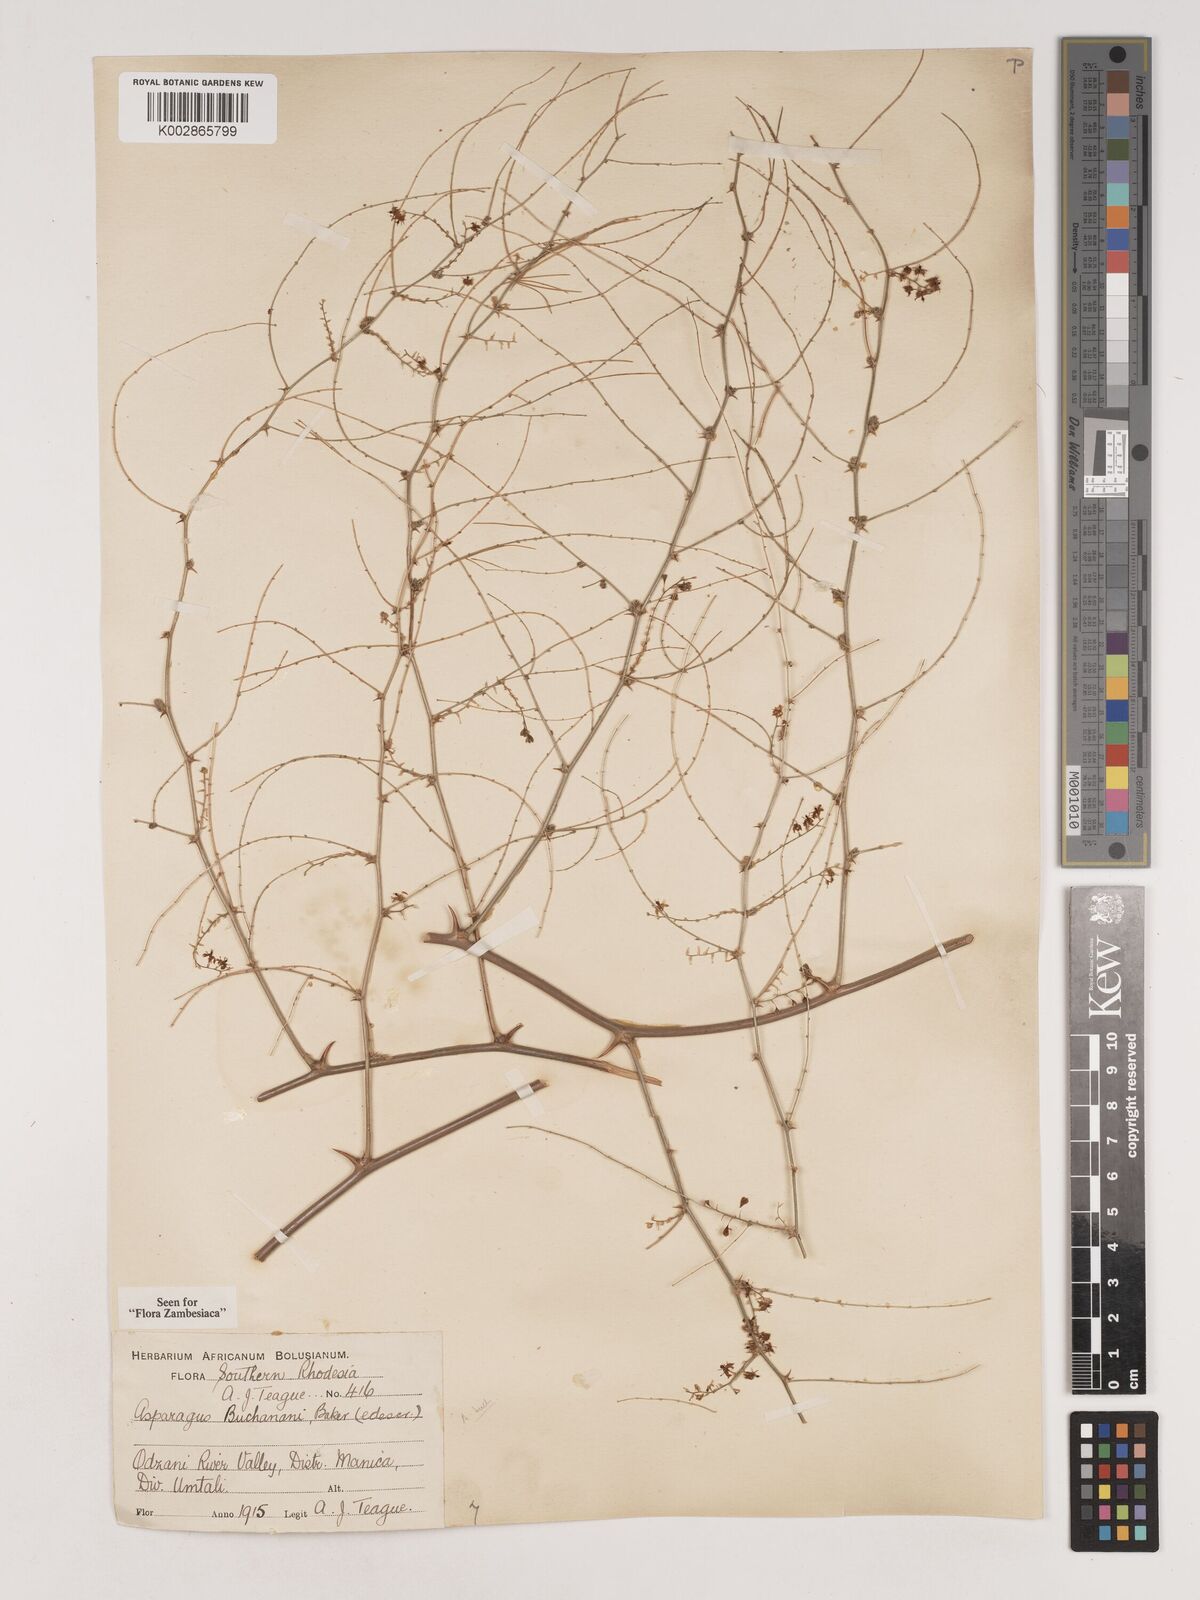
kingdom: Plantae
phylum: Tracheophyta
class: Liliopsida
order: Asparagales
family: Asparagaceae
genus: Asparagus
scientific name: Asparagus buchananii
